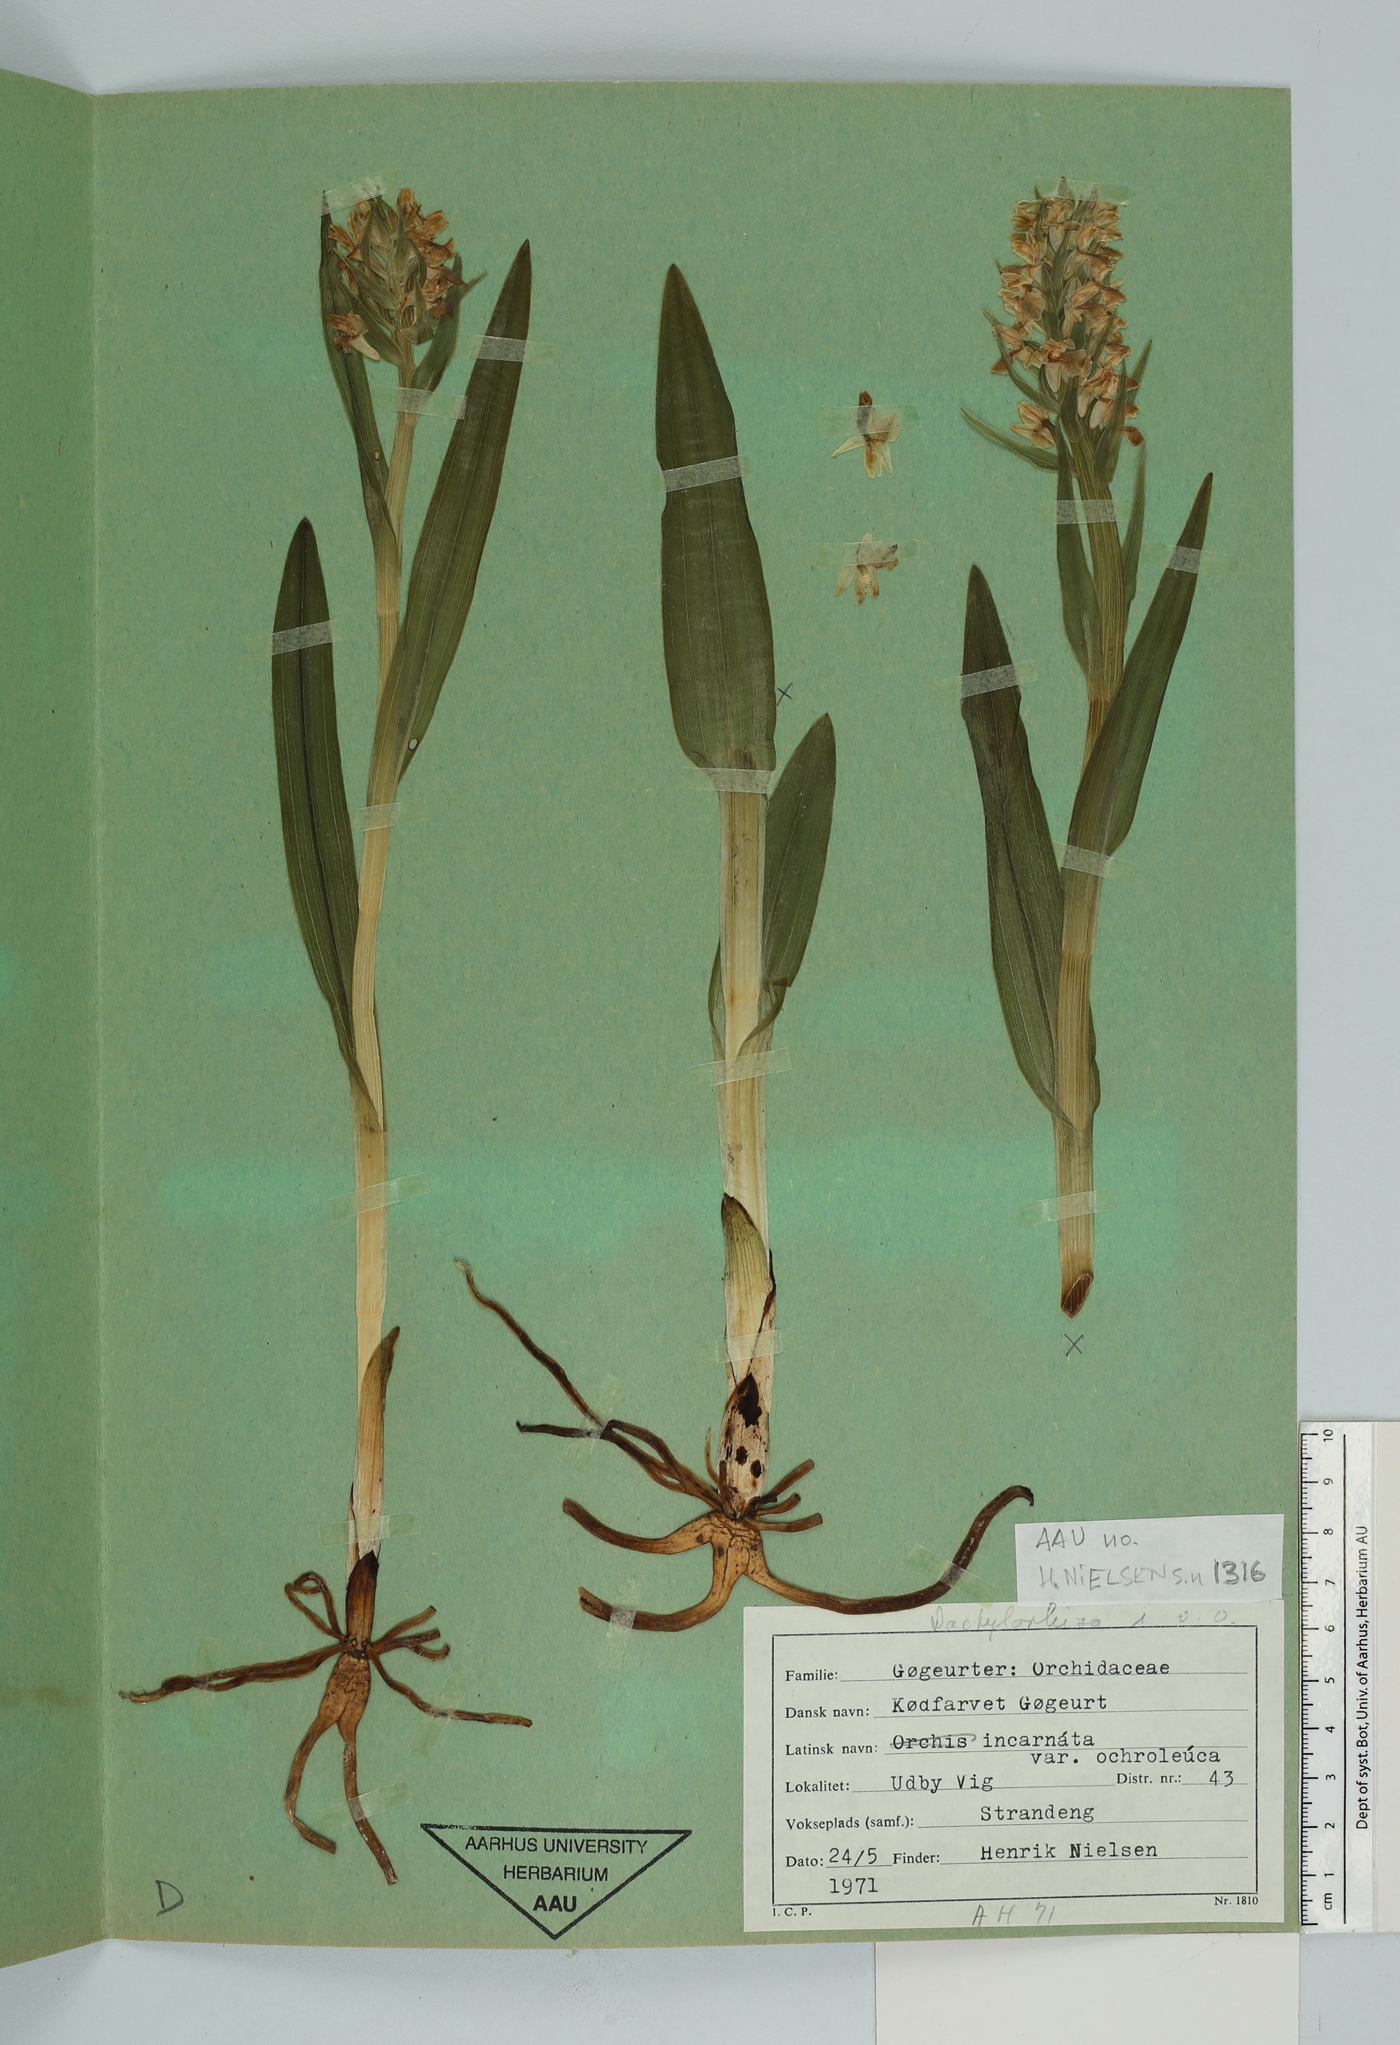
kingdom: Plantae
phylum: Tracheophyta
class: Liliopsida
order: Asparagales
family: Orchidaceae
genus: Dactylorhiza
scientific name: Dactylorhiza incarnata
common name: Early marsh-orchid
